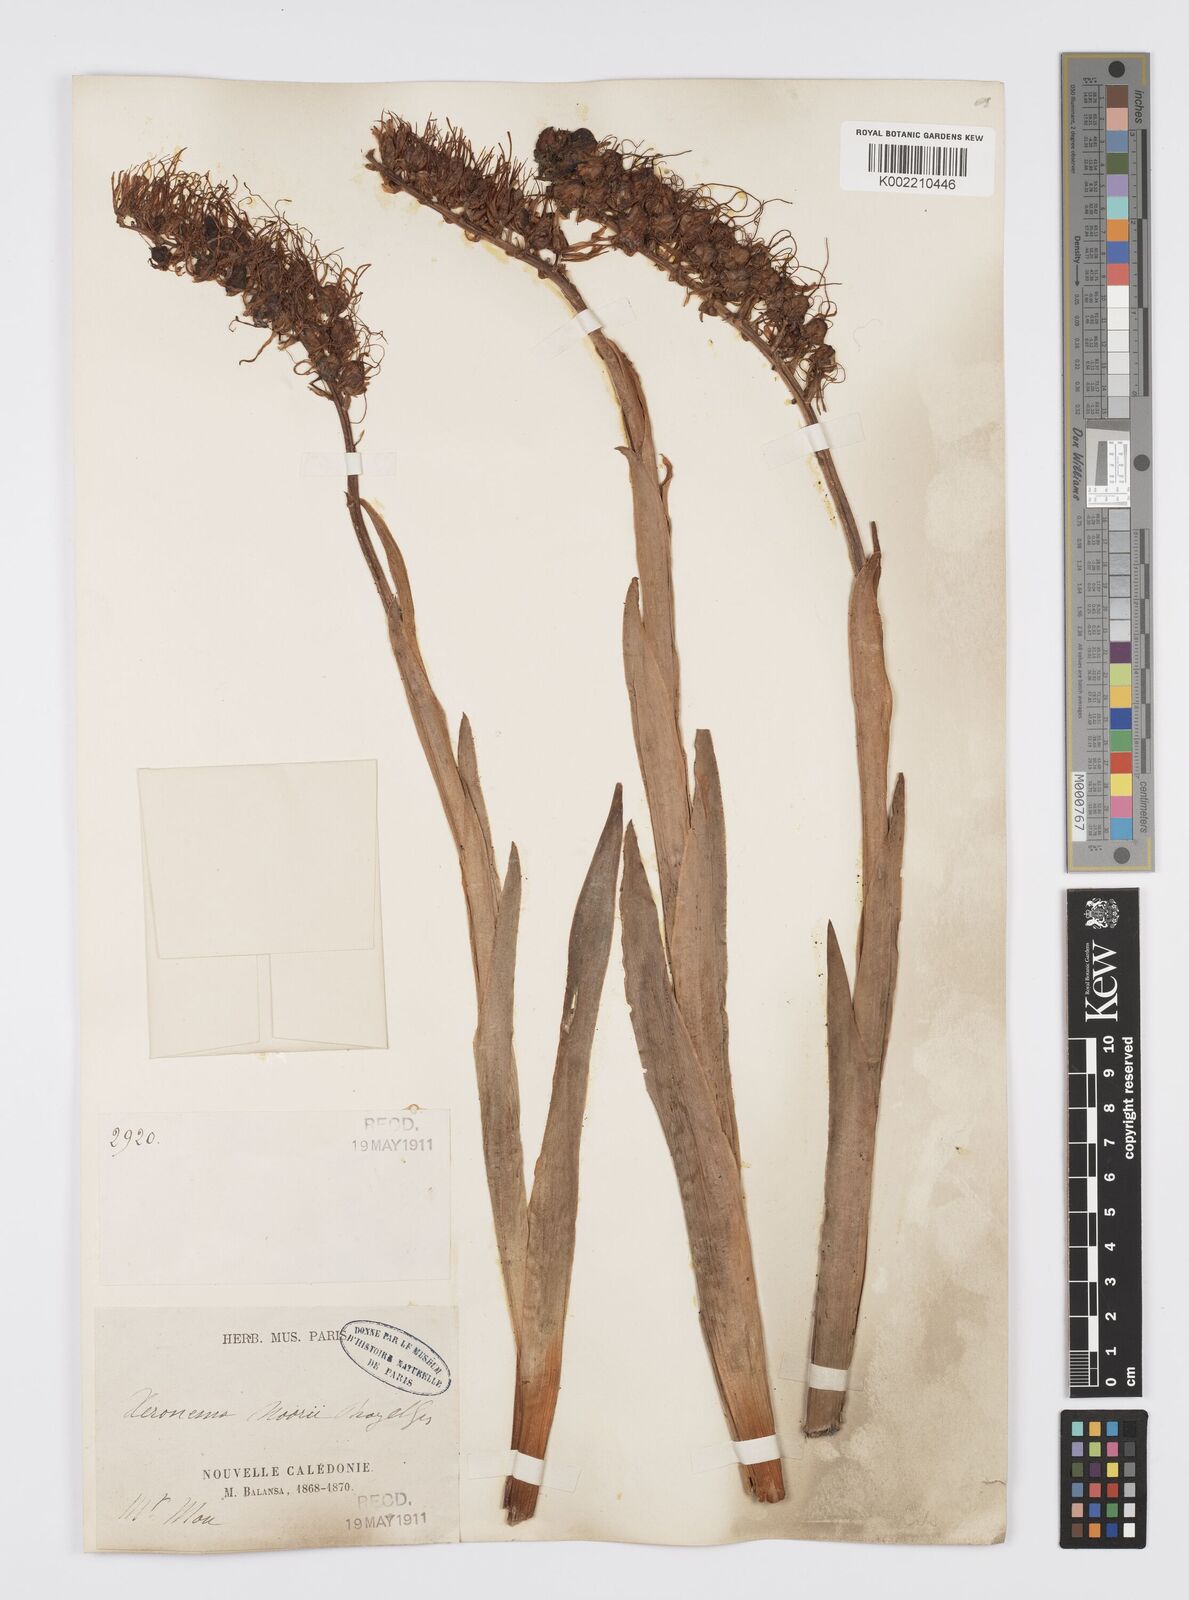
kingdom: Plantae
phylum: Tracheophyta
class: Liliopsida
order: Asparagales
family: Xeronemataceae
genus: Xeronema
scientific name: Xeronema moorei
